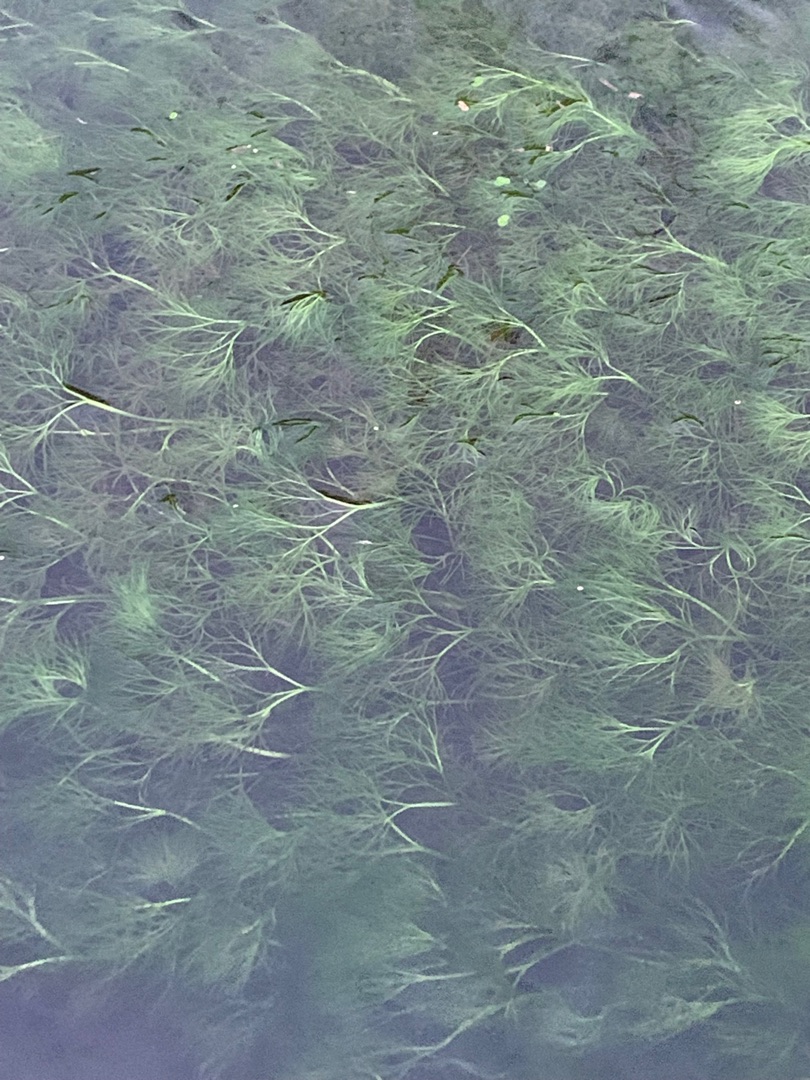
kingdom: Plantae
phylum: Tracheophyta
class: Magnoliopsida
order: Ranunculales
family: Ranunculaceae
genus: Ranunculus
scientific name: Ranunculus
